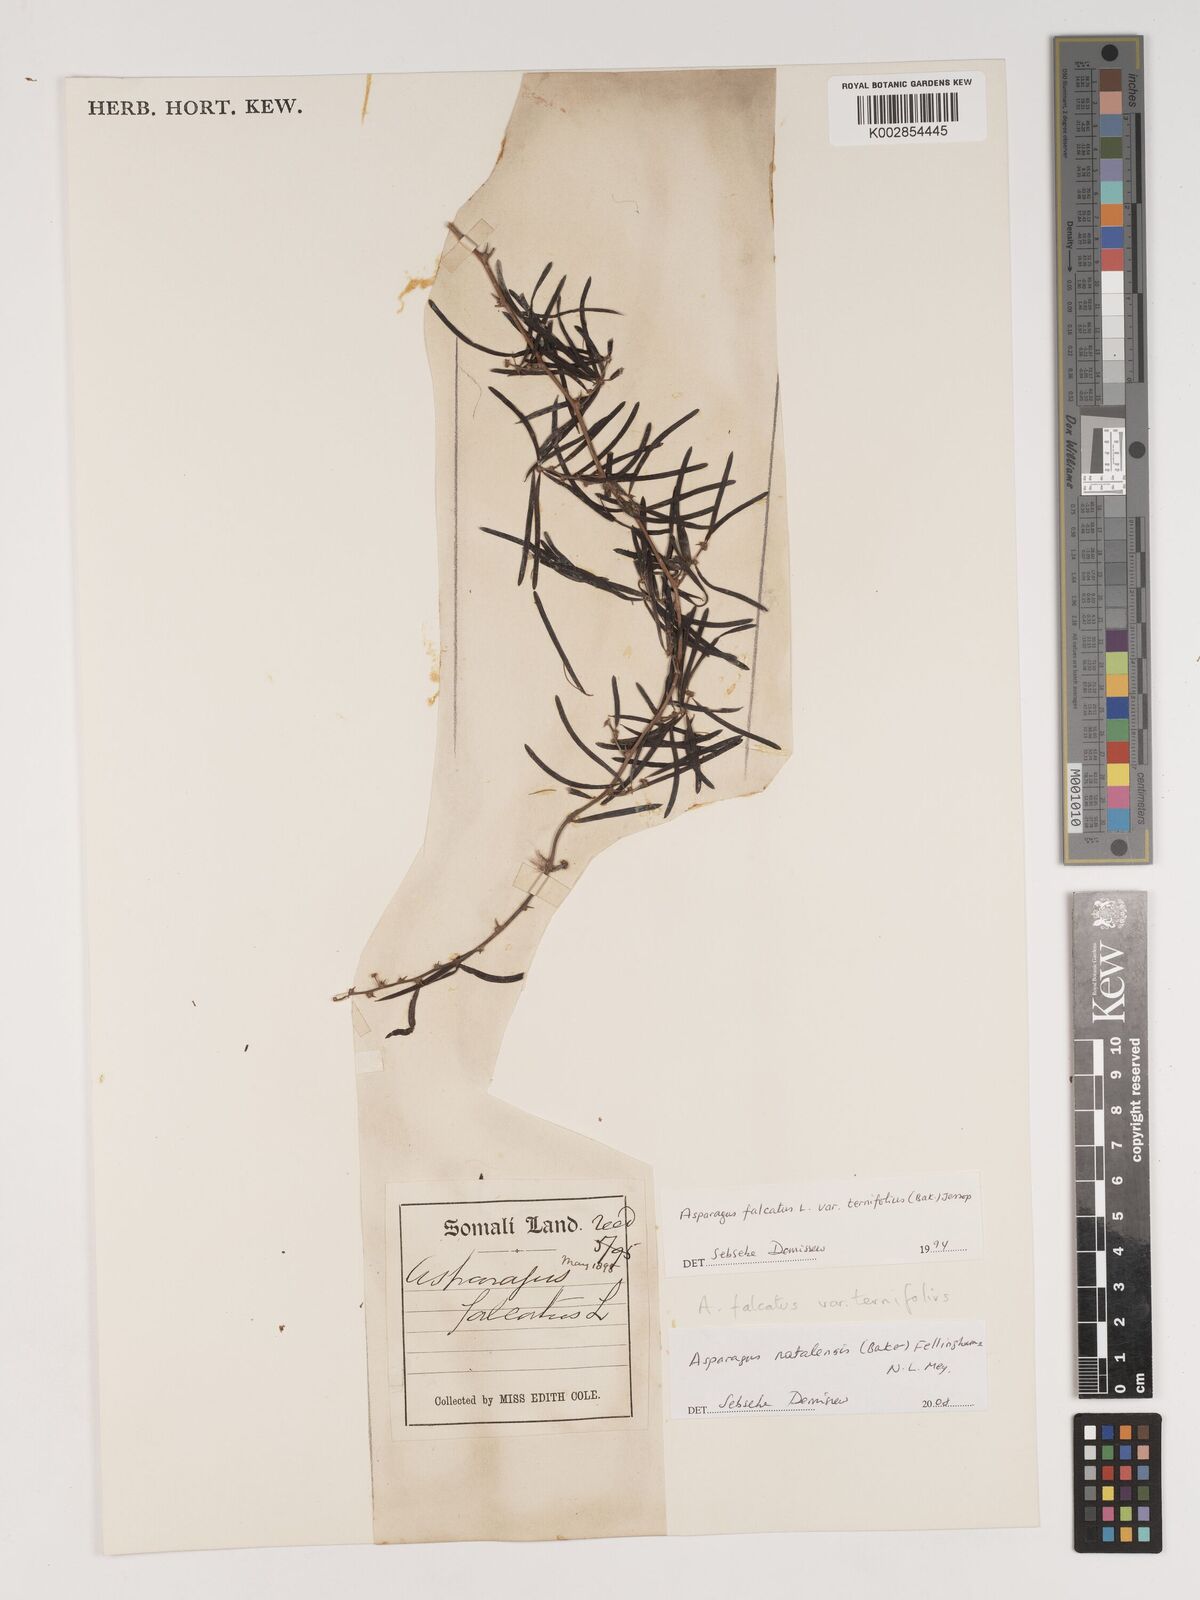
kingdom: Plantae
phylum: Tracheophyta
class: Liliopsida
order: Asparagales
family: Asparagaceae
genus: Asparagus
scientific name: Asparagus natalensis
